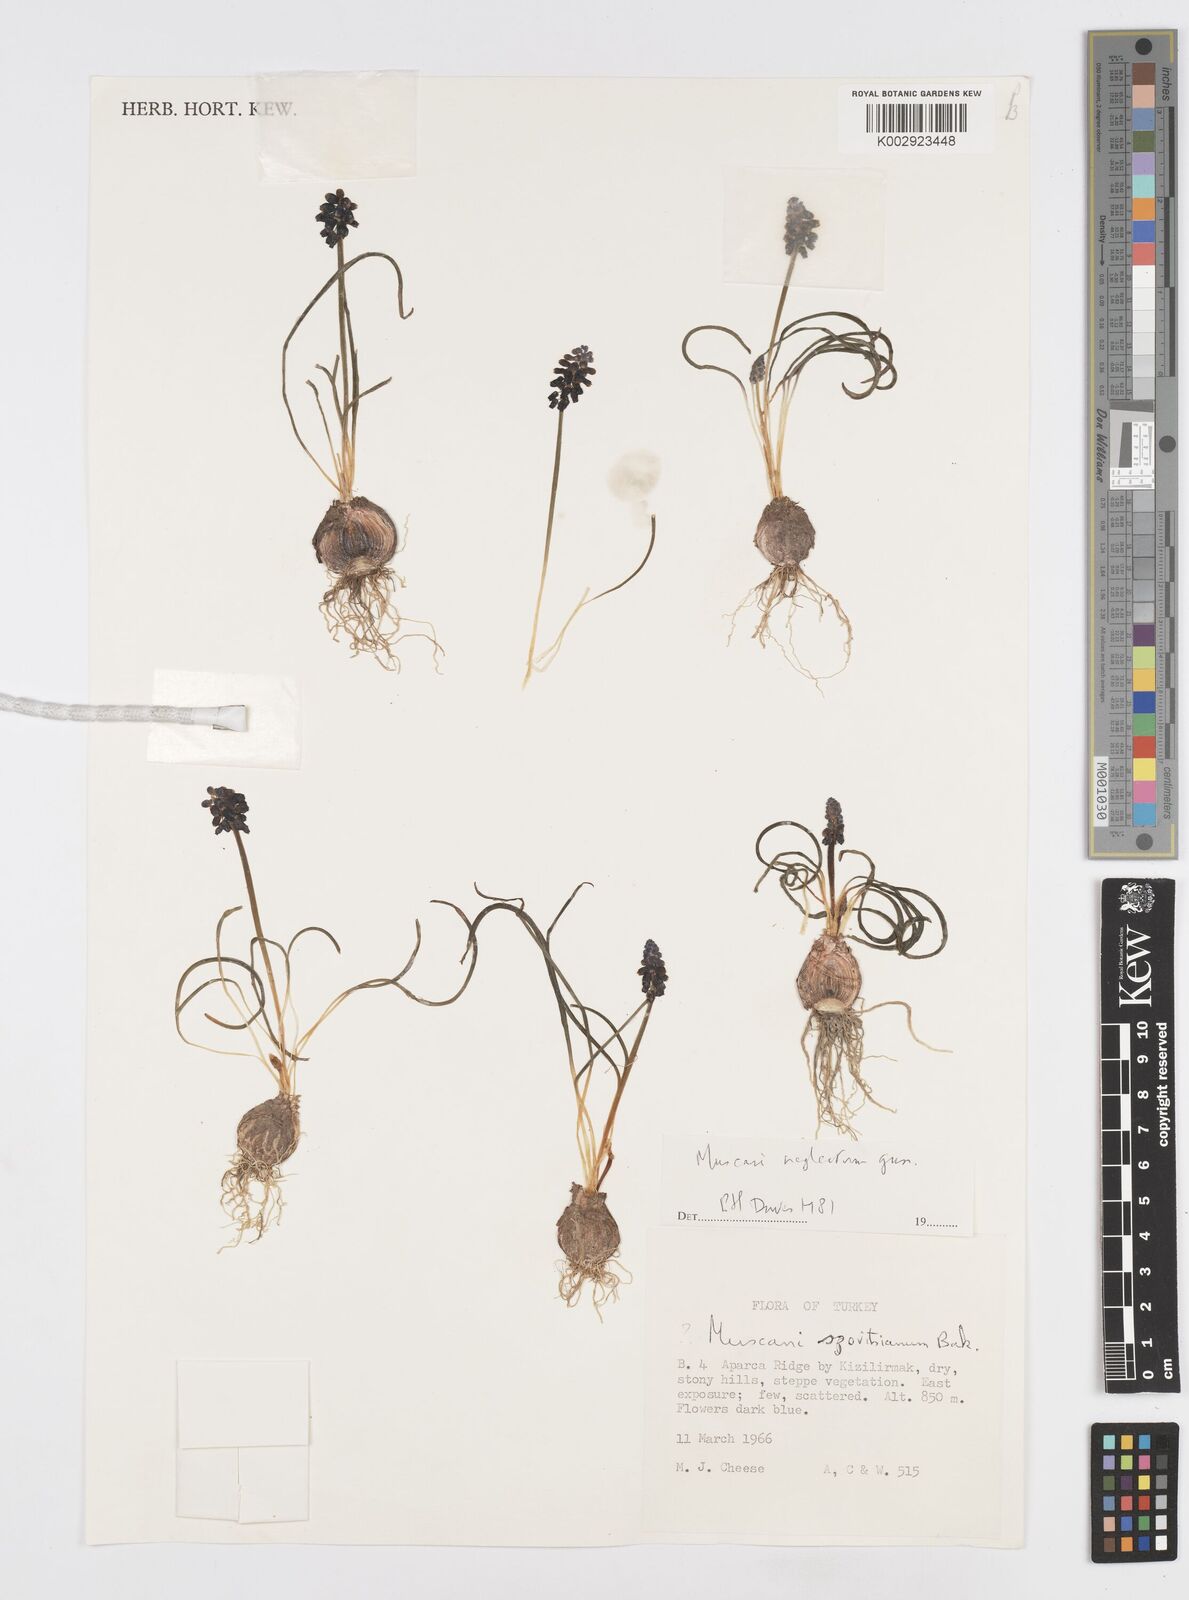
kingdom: Plantae
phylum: Tracheophyta
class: Liliopsida
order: Asparagales
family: Asparagaceae
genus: Muscari
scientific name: Muscari neglectum
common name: Grape-hyacinth
